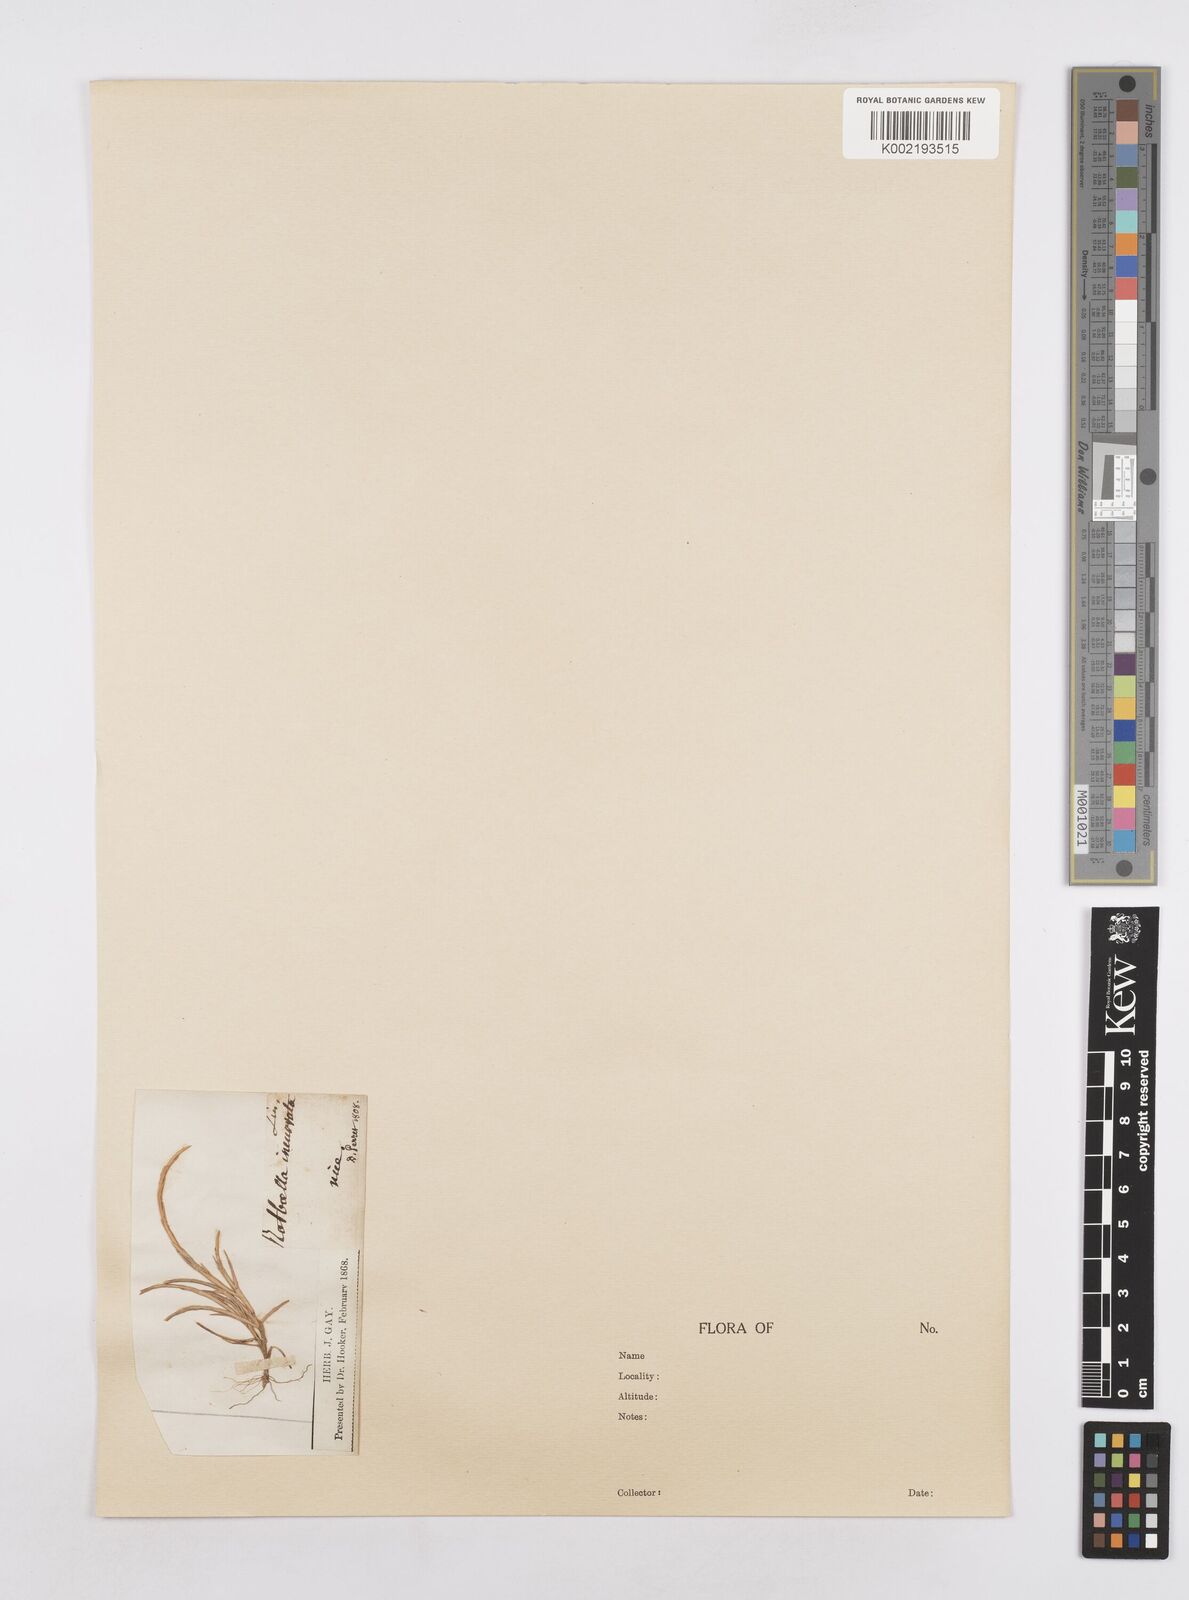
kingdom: Plantae
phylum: Tracheophyta
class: Liliopsida
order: Poales
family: Poaceae
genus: Parapholis
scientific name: Parapholis incurva
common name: Curved sicklegrass
